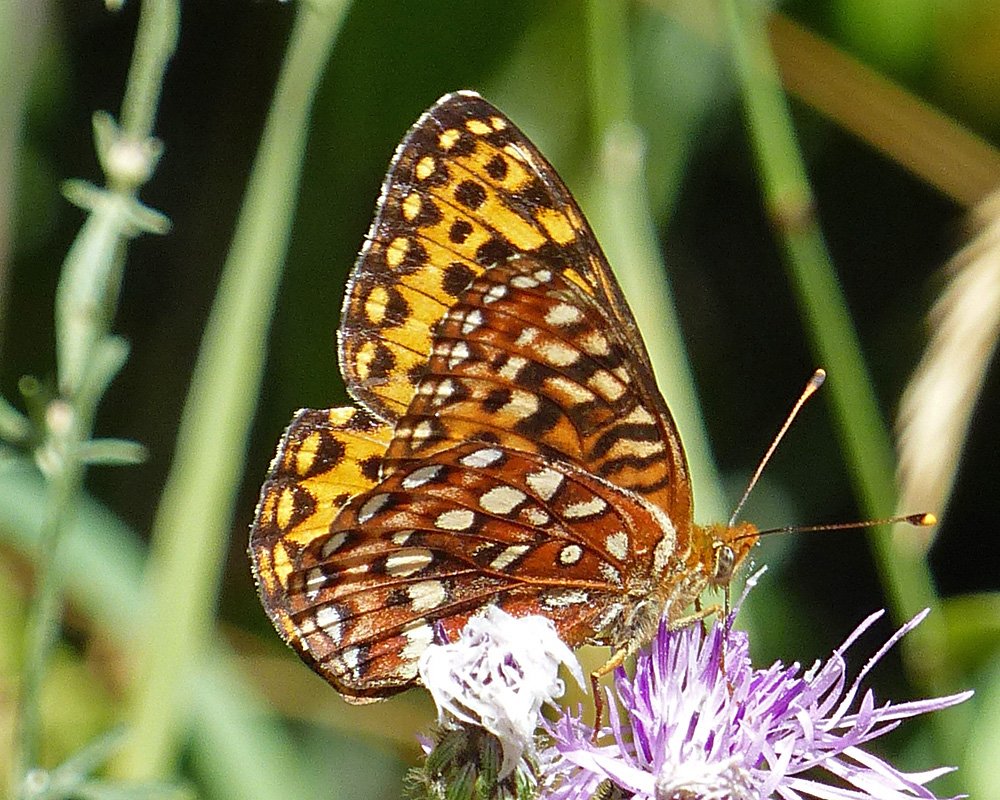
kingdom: Animalia
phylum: Arthropoda
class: Insecta
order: Lepidoptera
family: Nymphalidae
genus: Speyeria
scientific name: Speyeria hydaspe
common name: Hydaspe Fritillary
